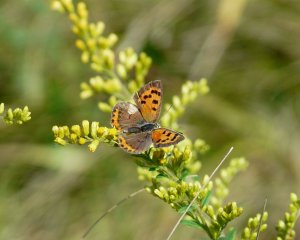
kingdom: Animalia
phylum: Arthropoda
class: Insecta
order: Lepidoptera
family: Lycaenidae
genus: Lycaena
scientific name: Lycaena phlaeas
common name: American Copper
